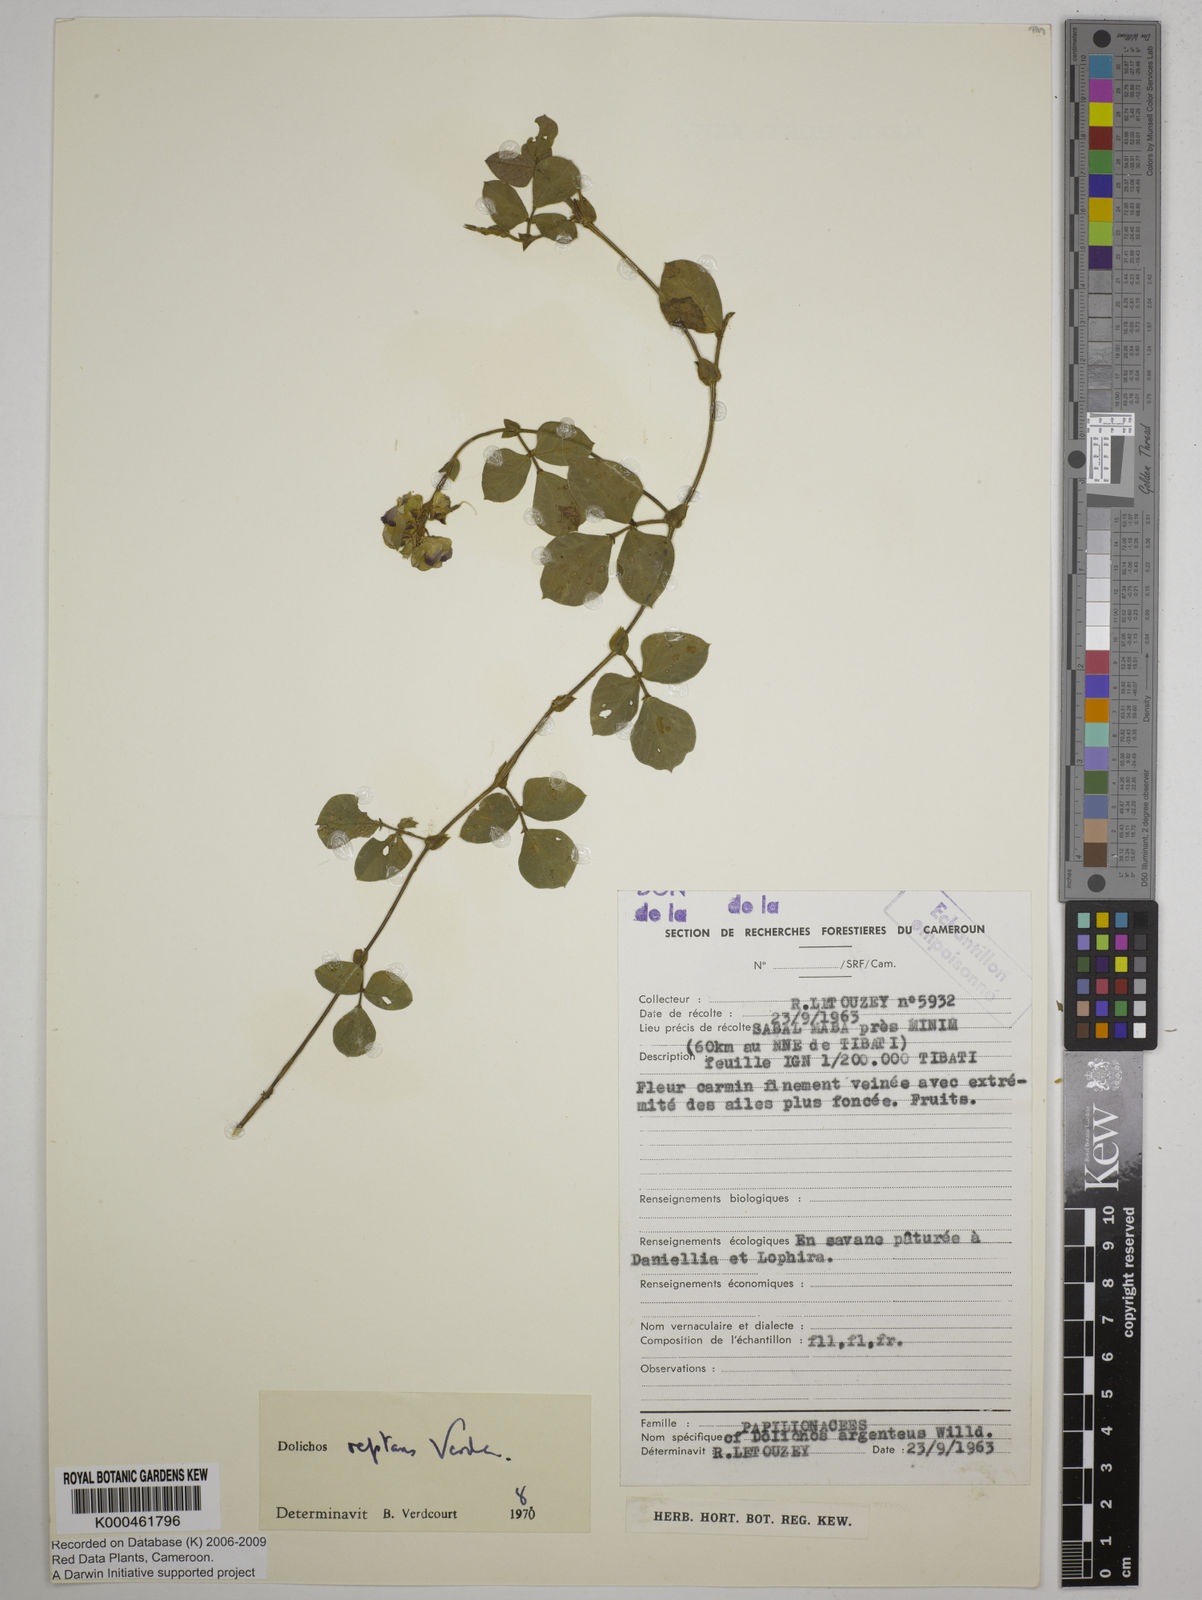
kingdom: Plantae
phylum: Tracheophyta
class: Magnoliopsida
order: Fabales
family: Fabaceae
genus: Dolichos
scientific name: Dolichos reptans
